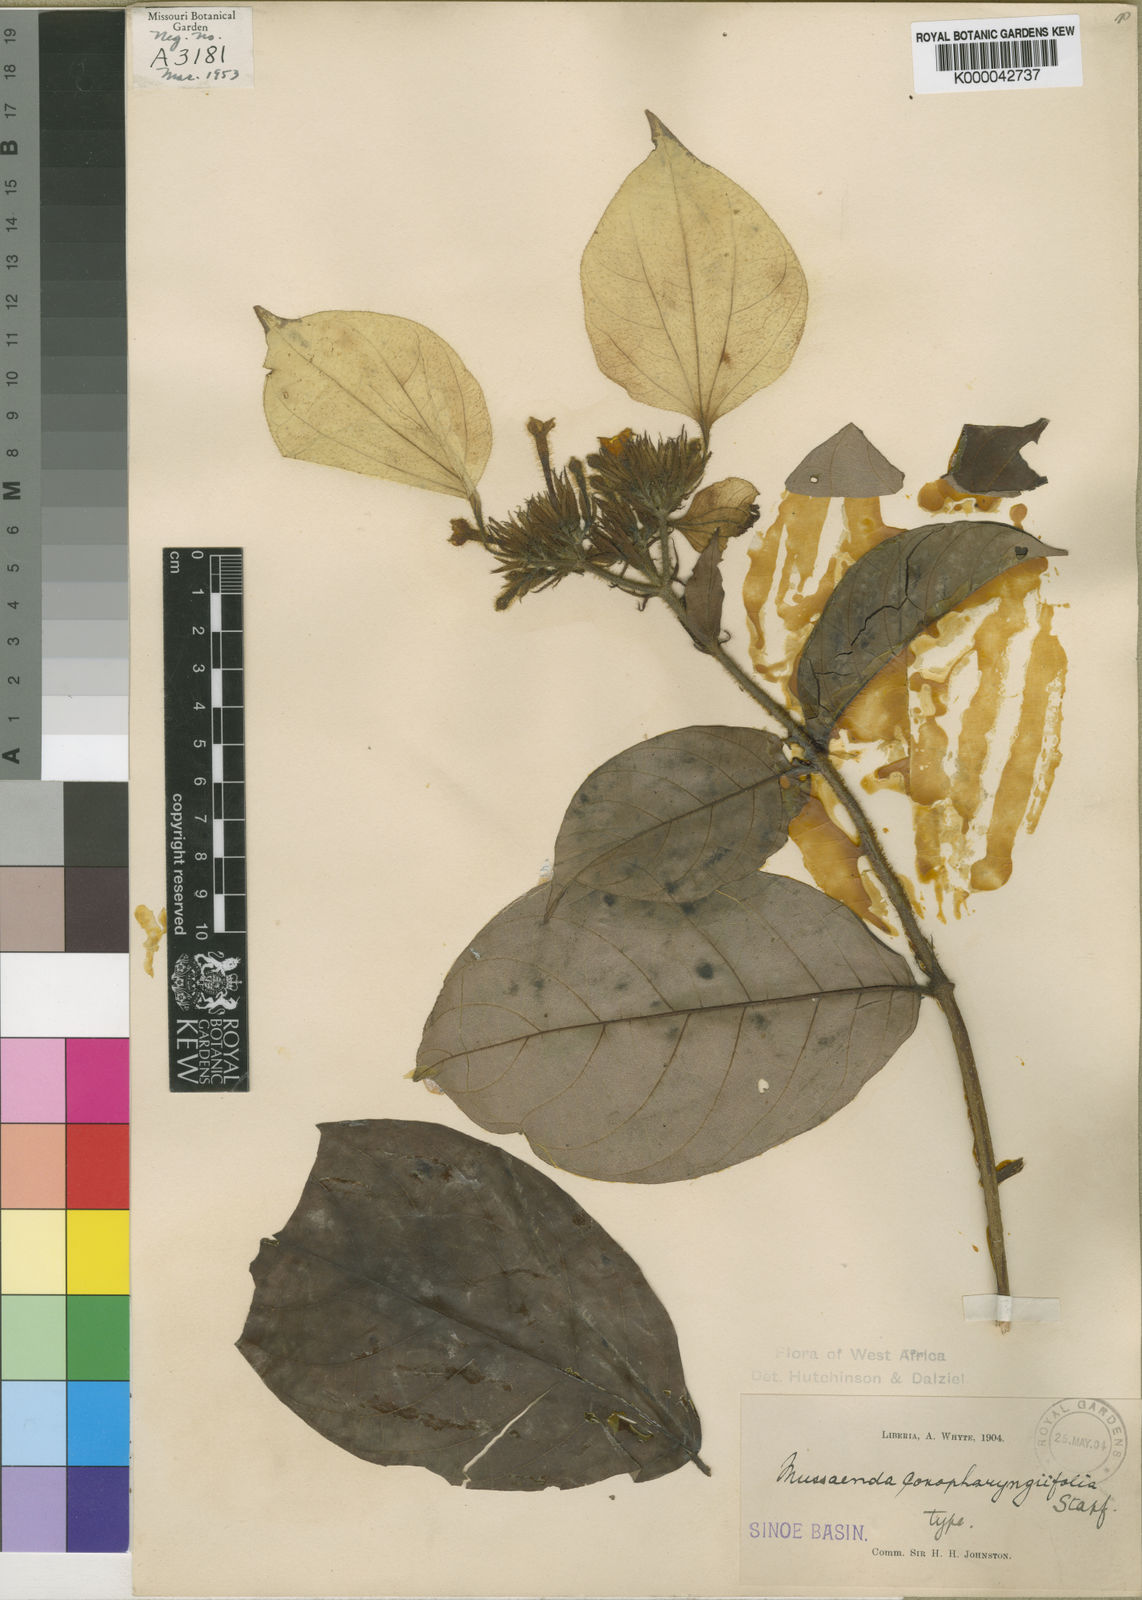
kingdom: Plantae
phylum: Tracheophyta
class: Magnoliopsida
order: Gentianales
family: Rubiaceae
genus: Mussaenda
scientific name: Mussaenda conopharyngiifolia
